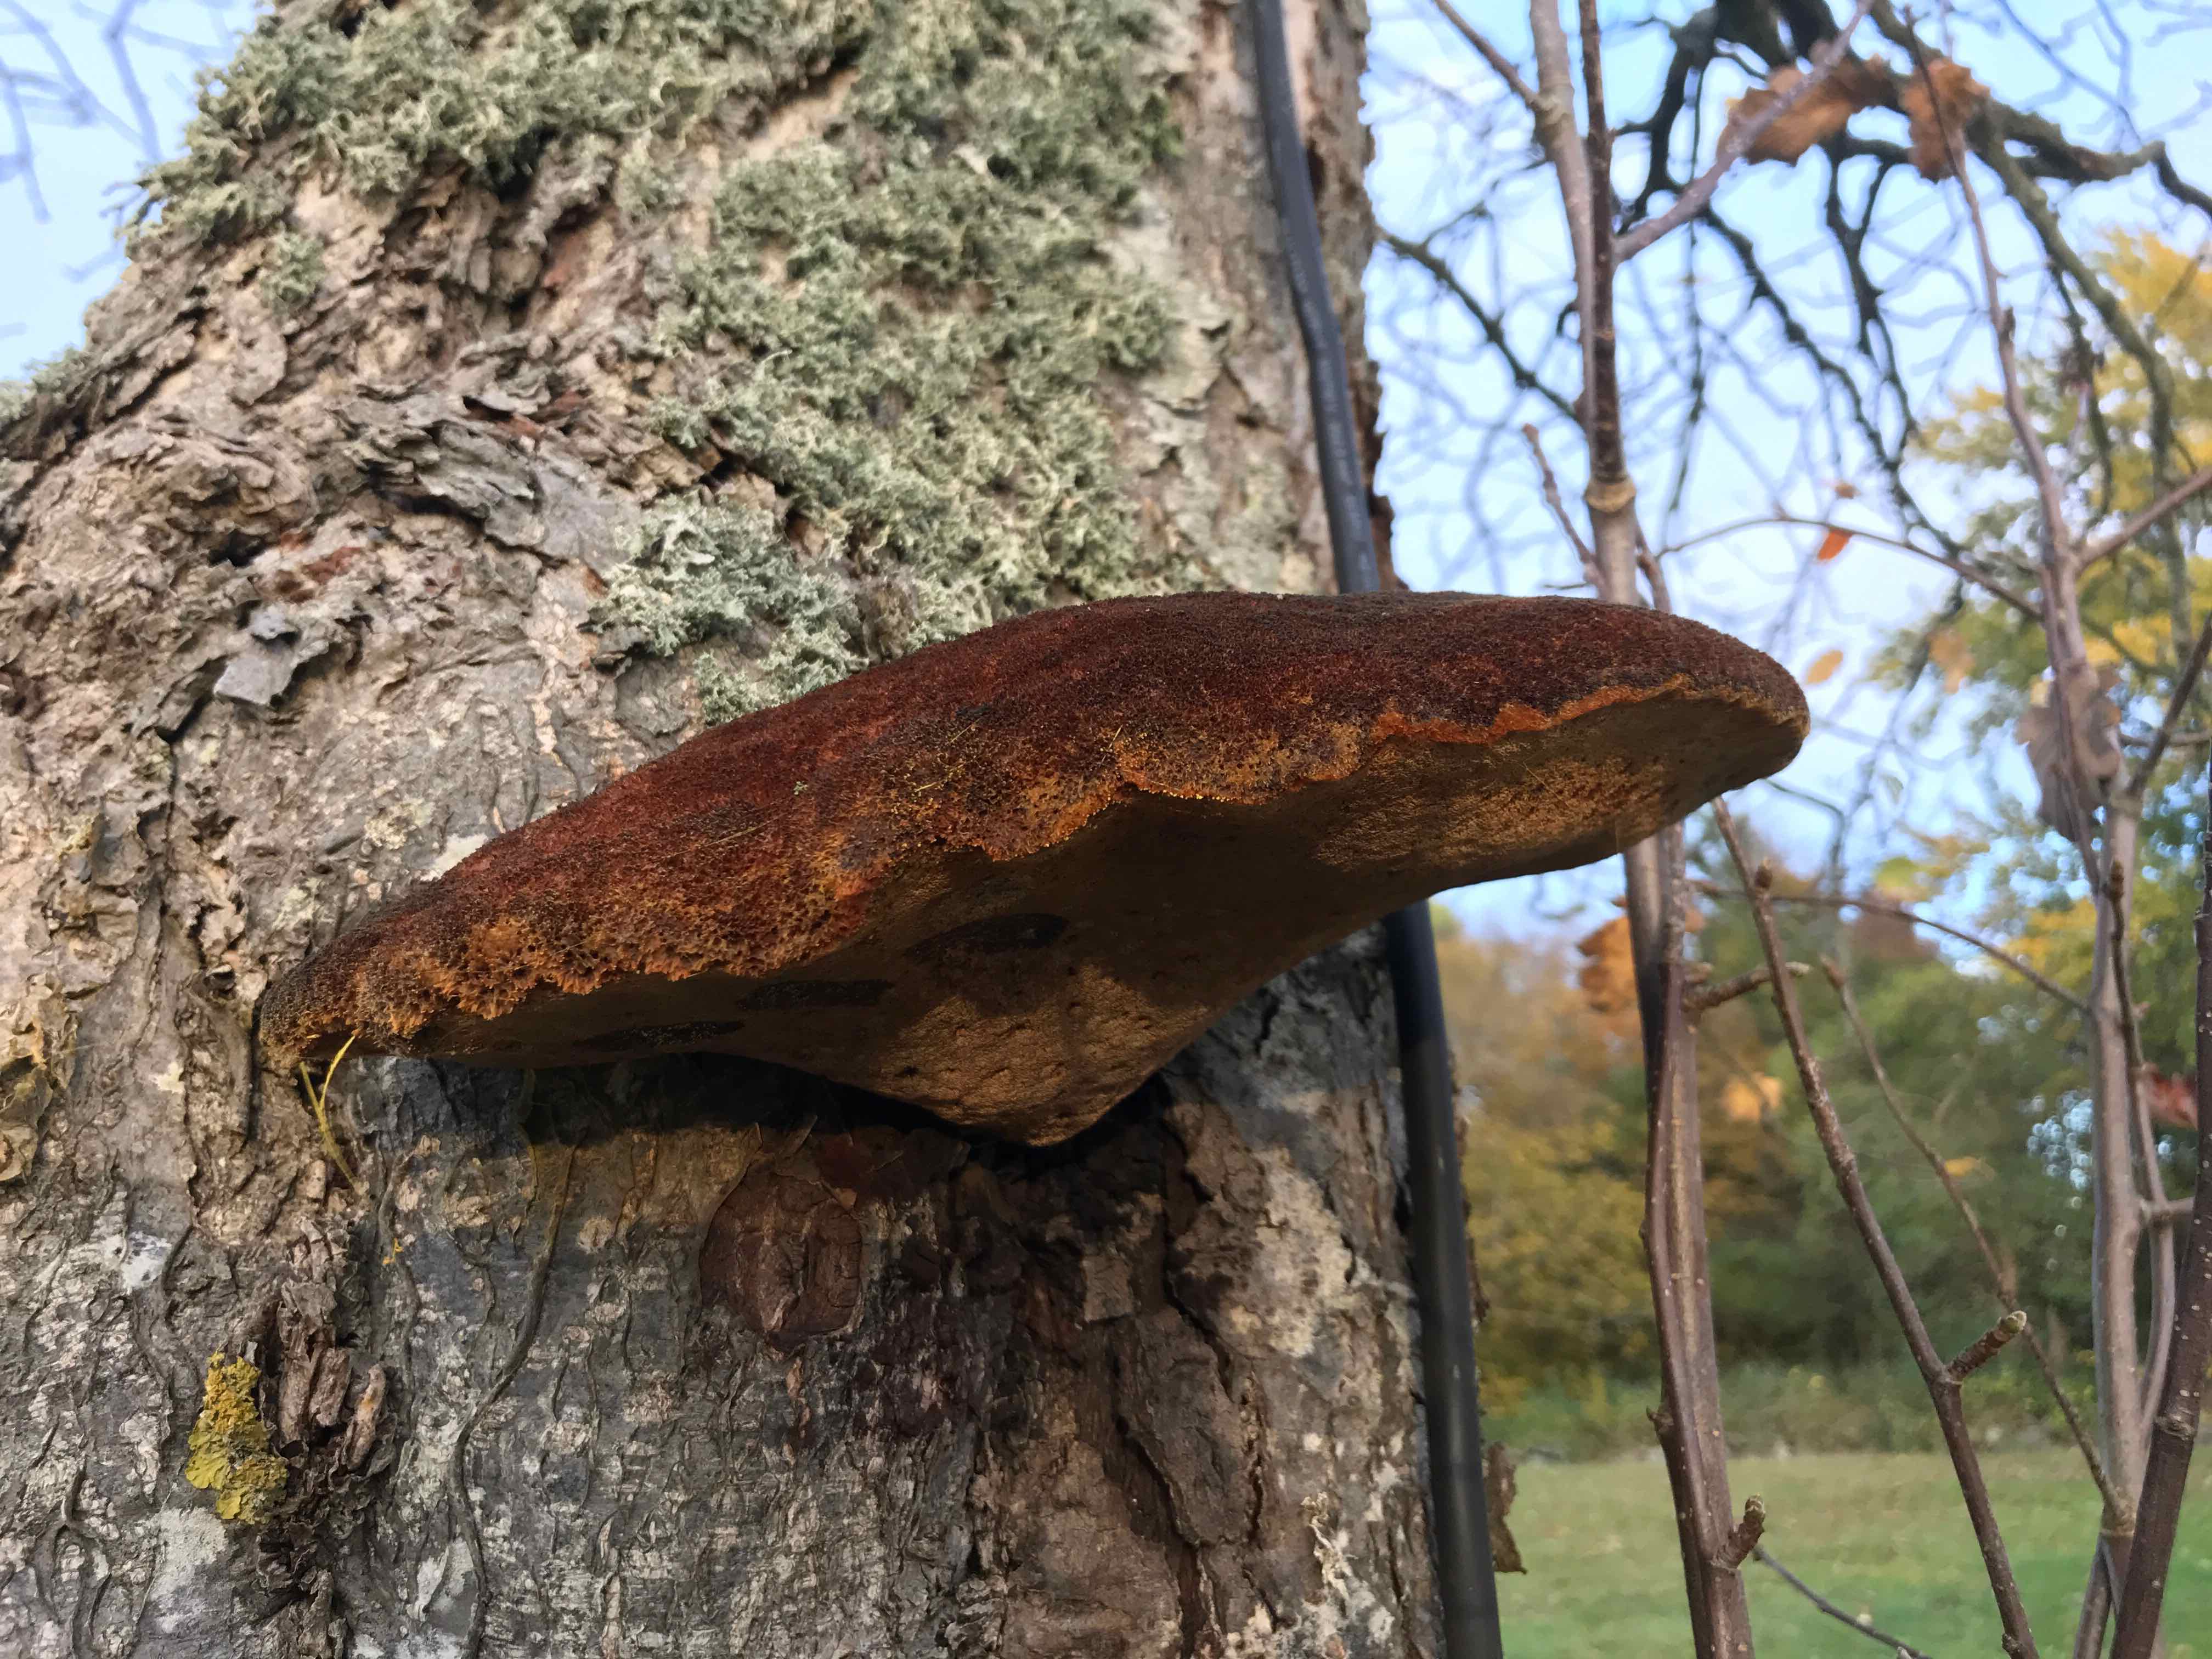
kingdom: Fungi
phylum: Basidiomycota
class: Agaricomycetes
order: Hymenochaetales
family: Hymenochaetaceae
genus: Inonotus
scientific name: Inonotus hispidus
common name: børstehåret spejlporesvamp
